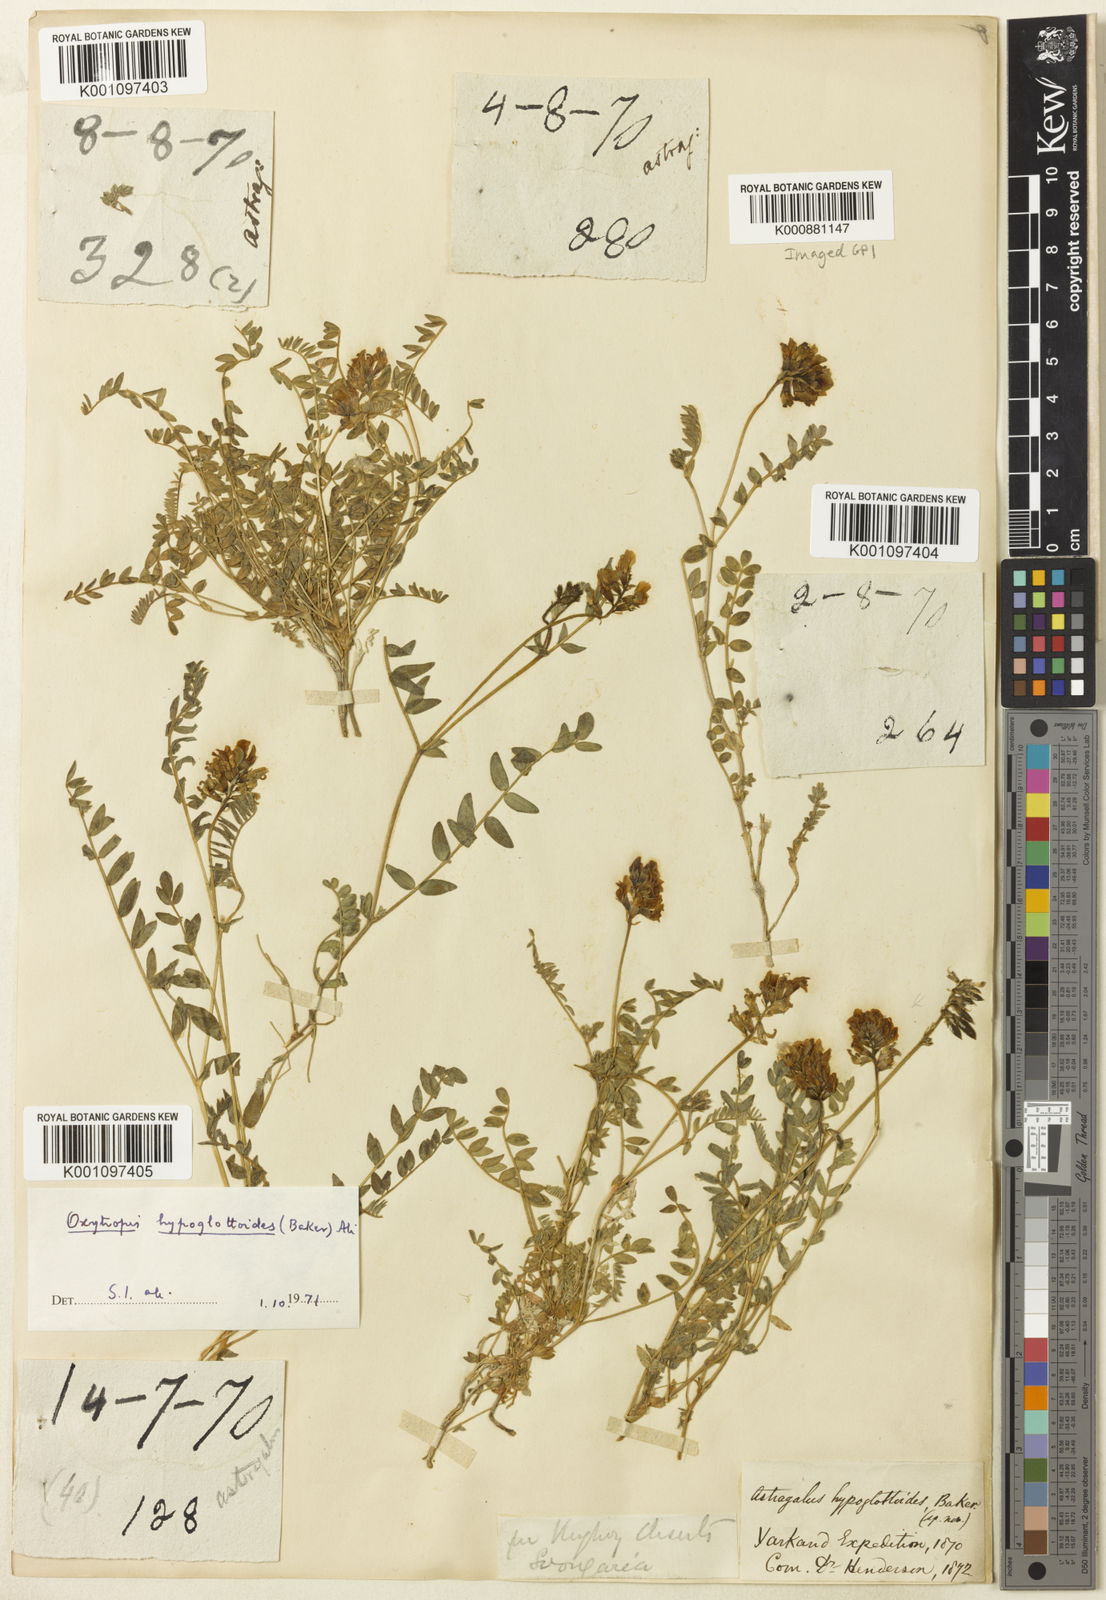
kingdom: Plantae
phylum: Tracheophyta
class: Magnoliopsida
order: Fabales
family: Fabaceae
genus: Oxytropis
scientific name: Oxytropis hypoglottoides
